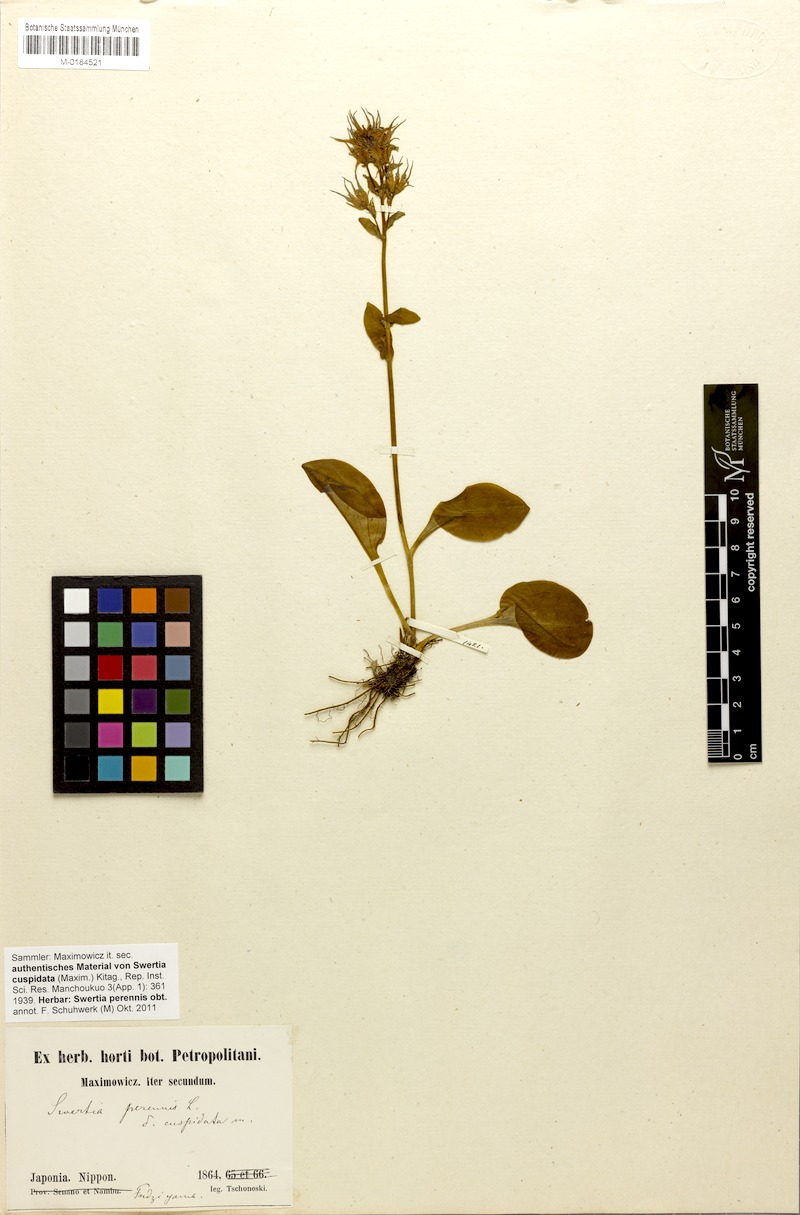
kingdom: Plantae
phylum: Tracheophyta
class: Magnoliopsida
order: Gentianales
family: Gentianaceae
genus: Swertia
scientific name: Swertia perennis
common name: Alpine bog swertia
